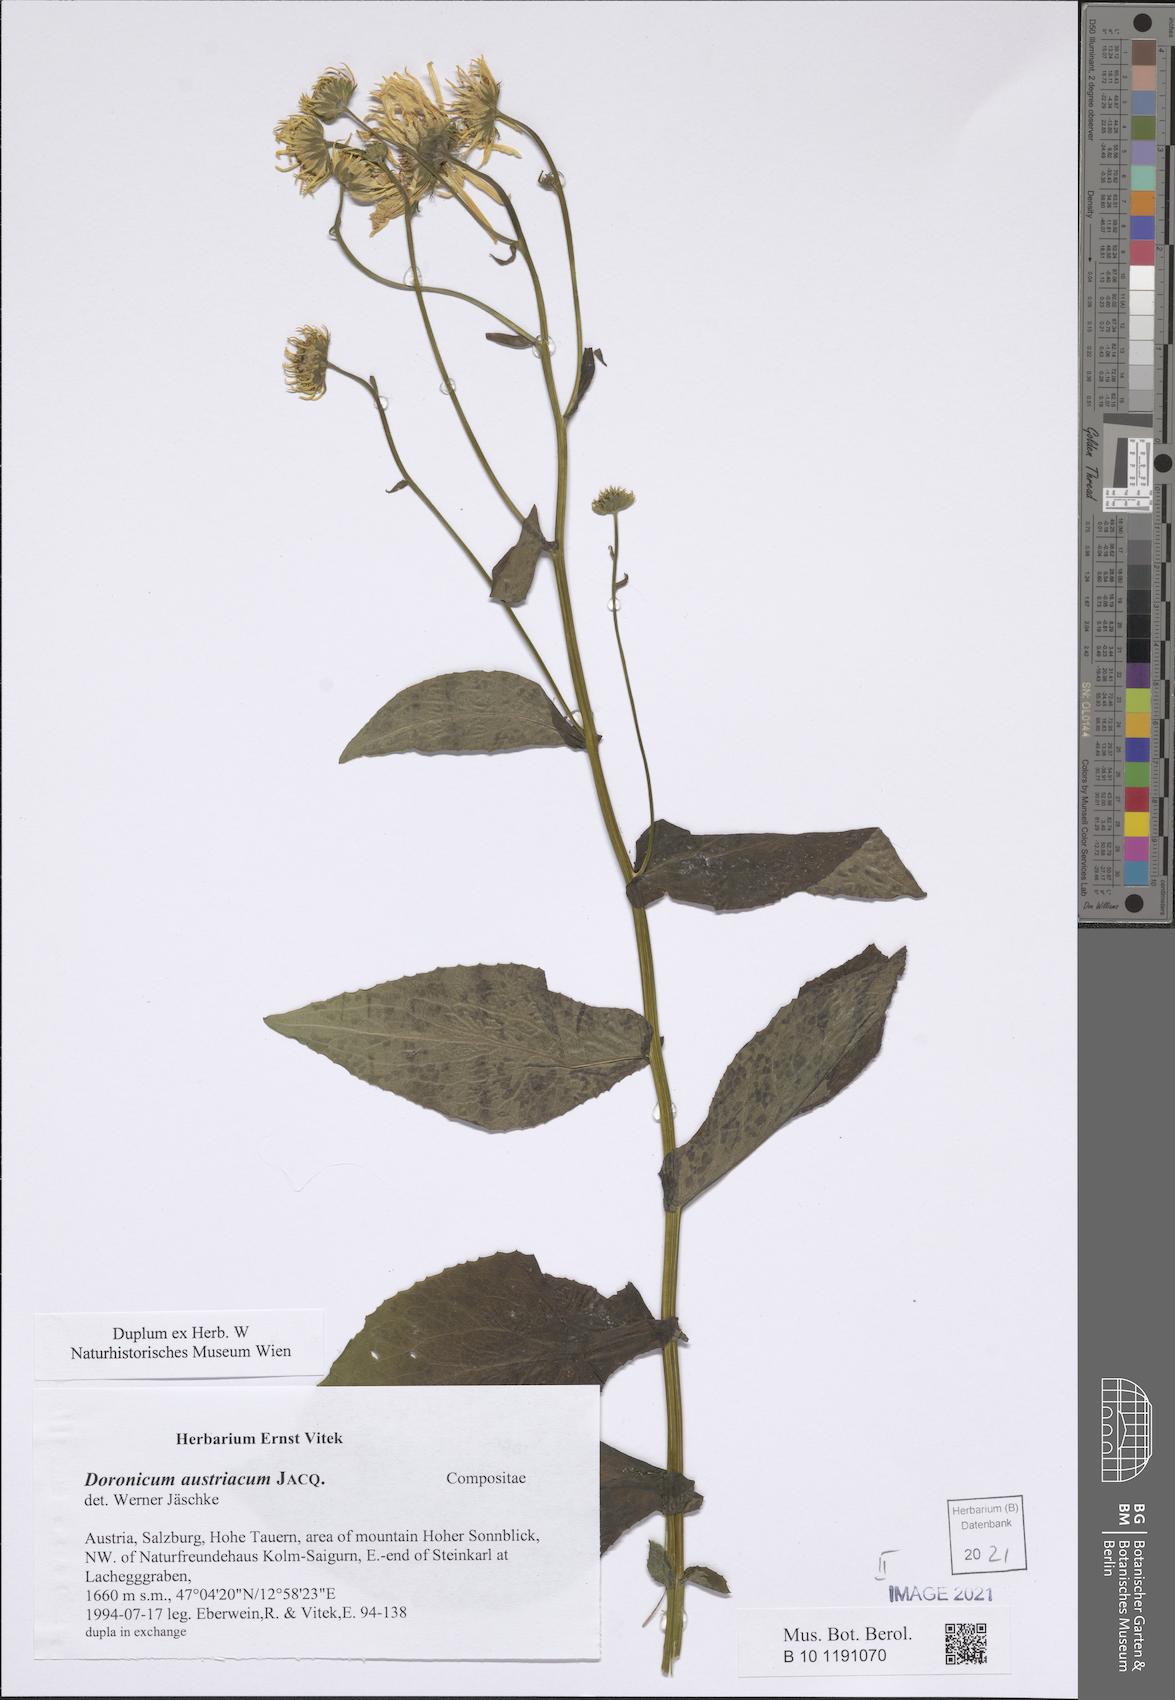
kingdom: Plantae
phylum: Tracheophyta
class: Magnoliopsida
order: Asterales
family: Asteraceae
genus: Doronicum
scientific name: Doronicum austriacum
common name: Austrian leopard's-bane
